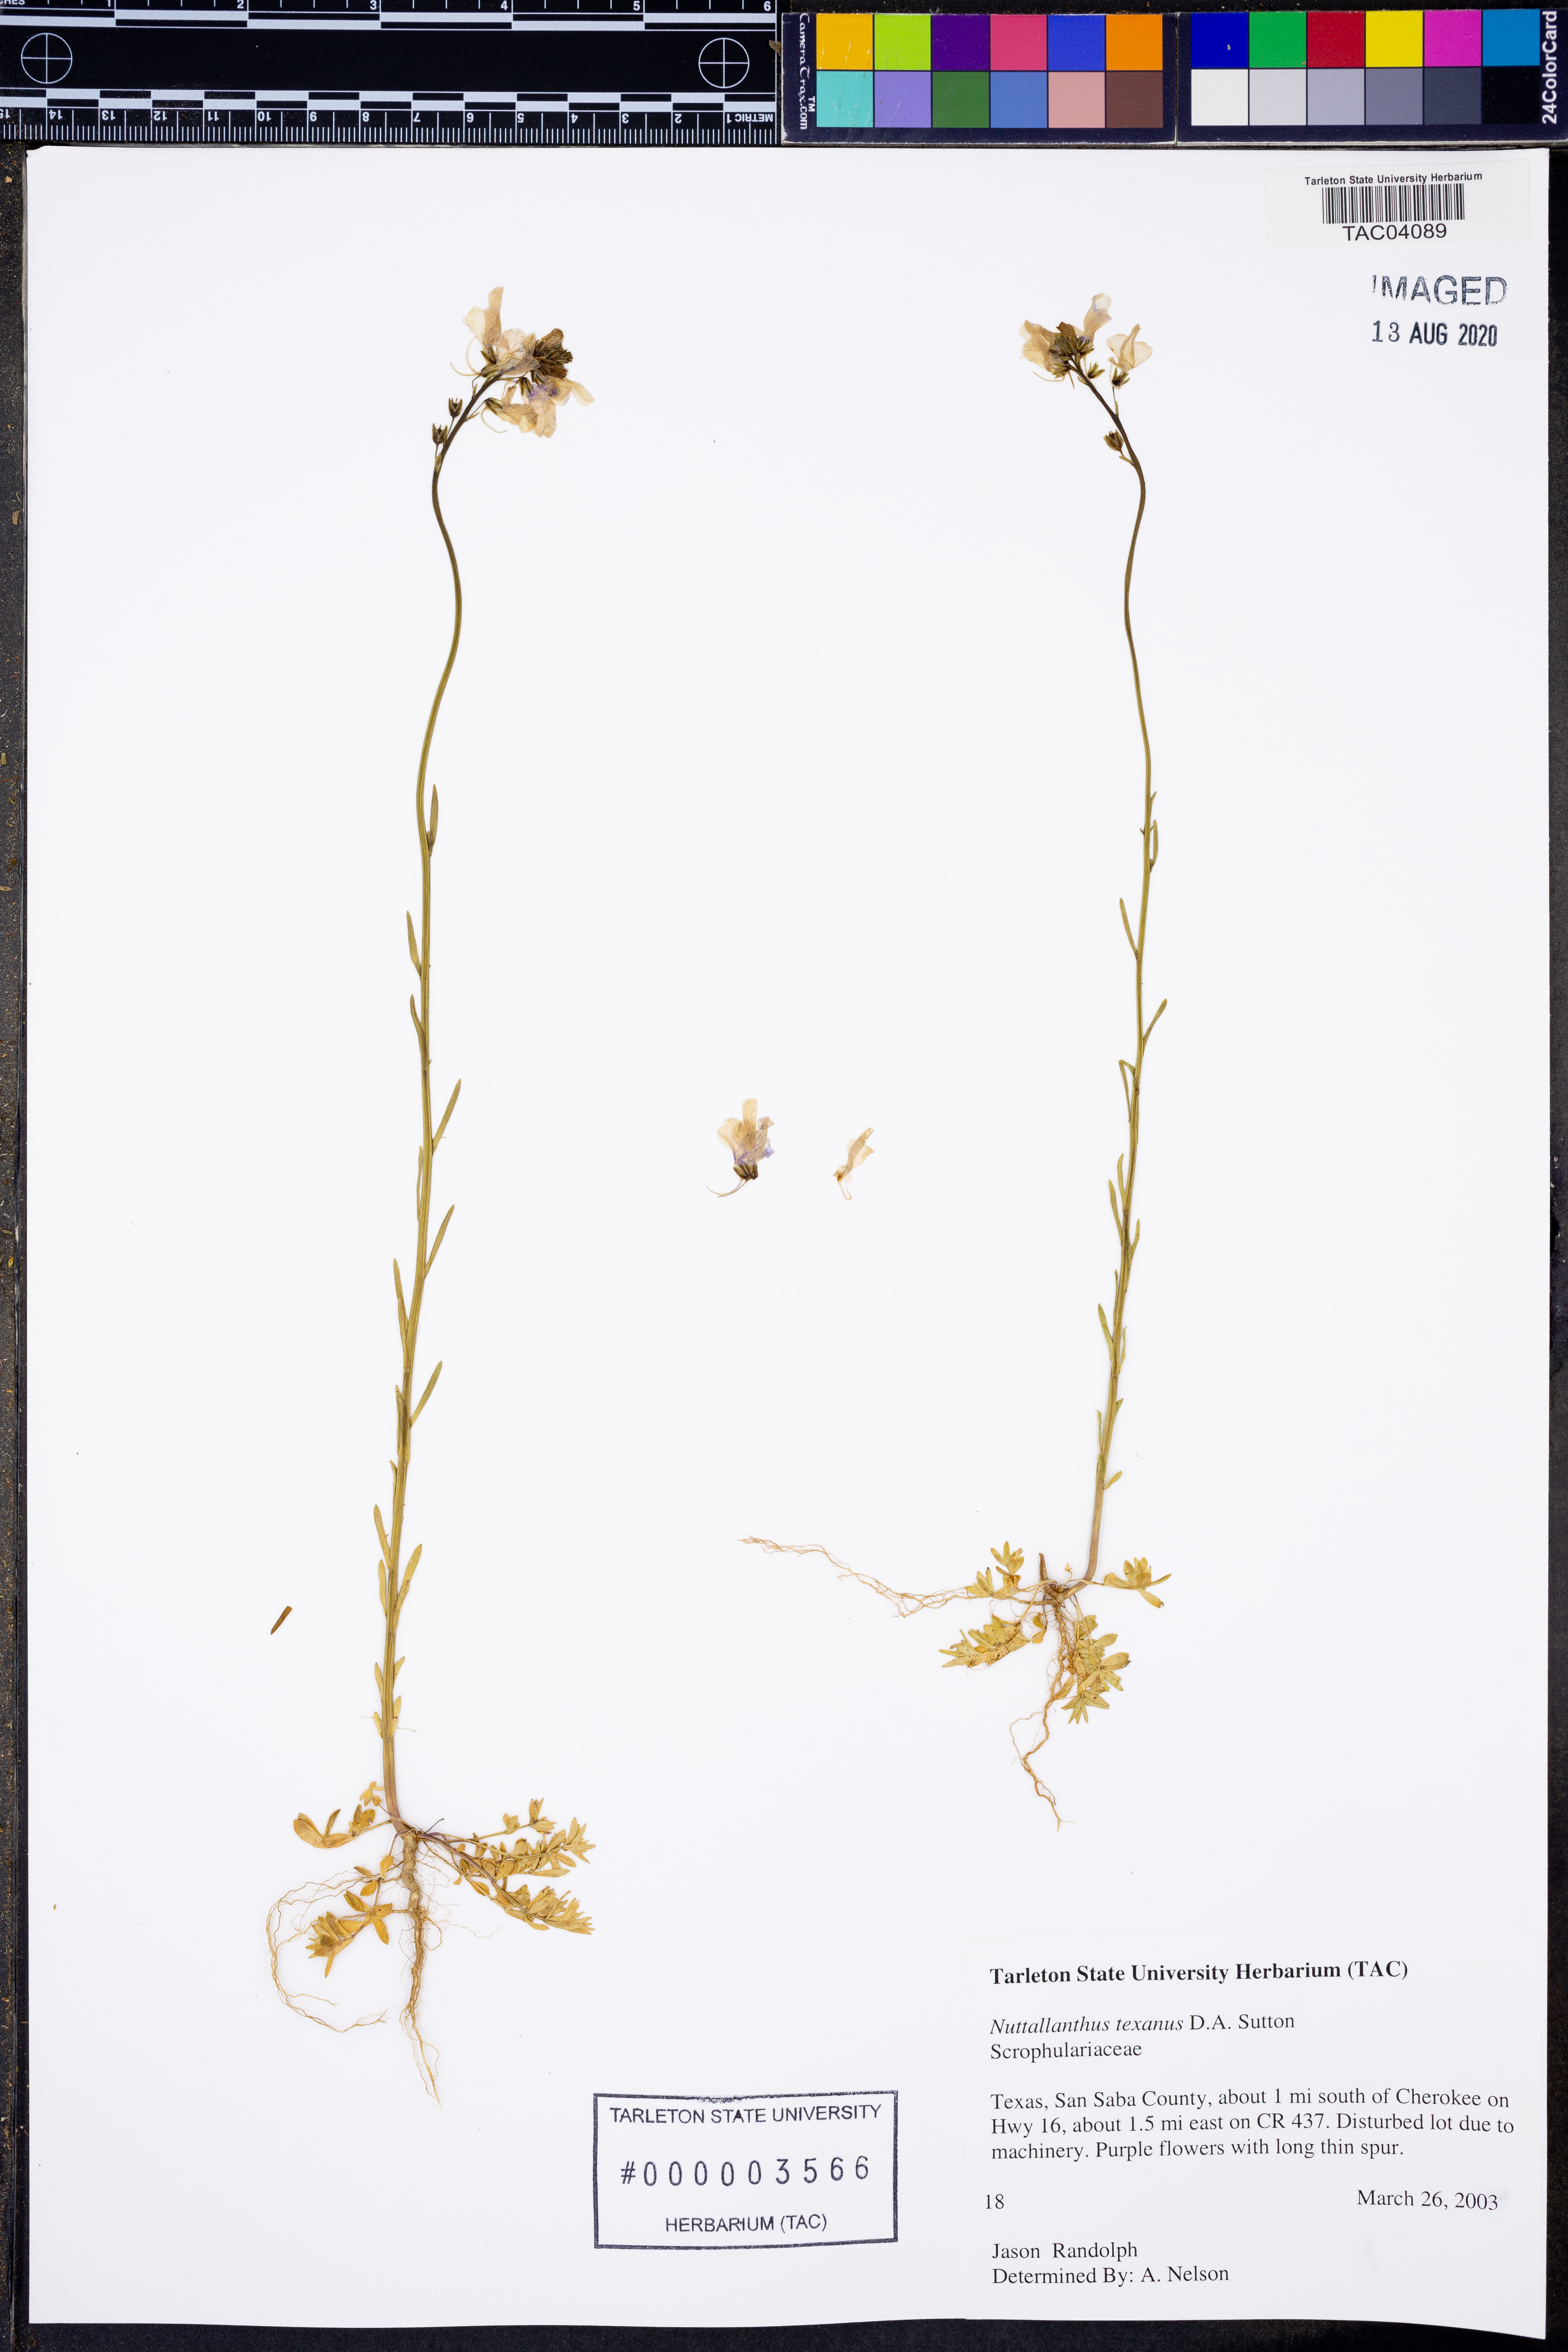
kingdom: Plantae
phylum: Tracheophyta
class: Magnoliopsida
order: Lamiales
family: Plantaginaceae
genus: Nuttallanthus
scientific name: Nuttallanthus texanus
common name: Texas toadflax
